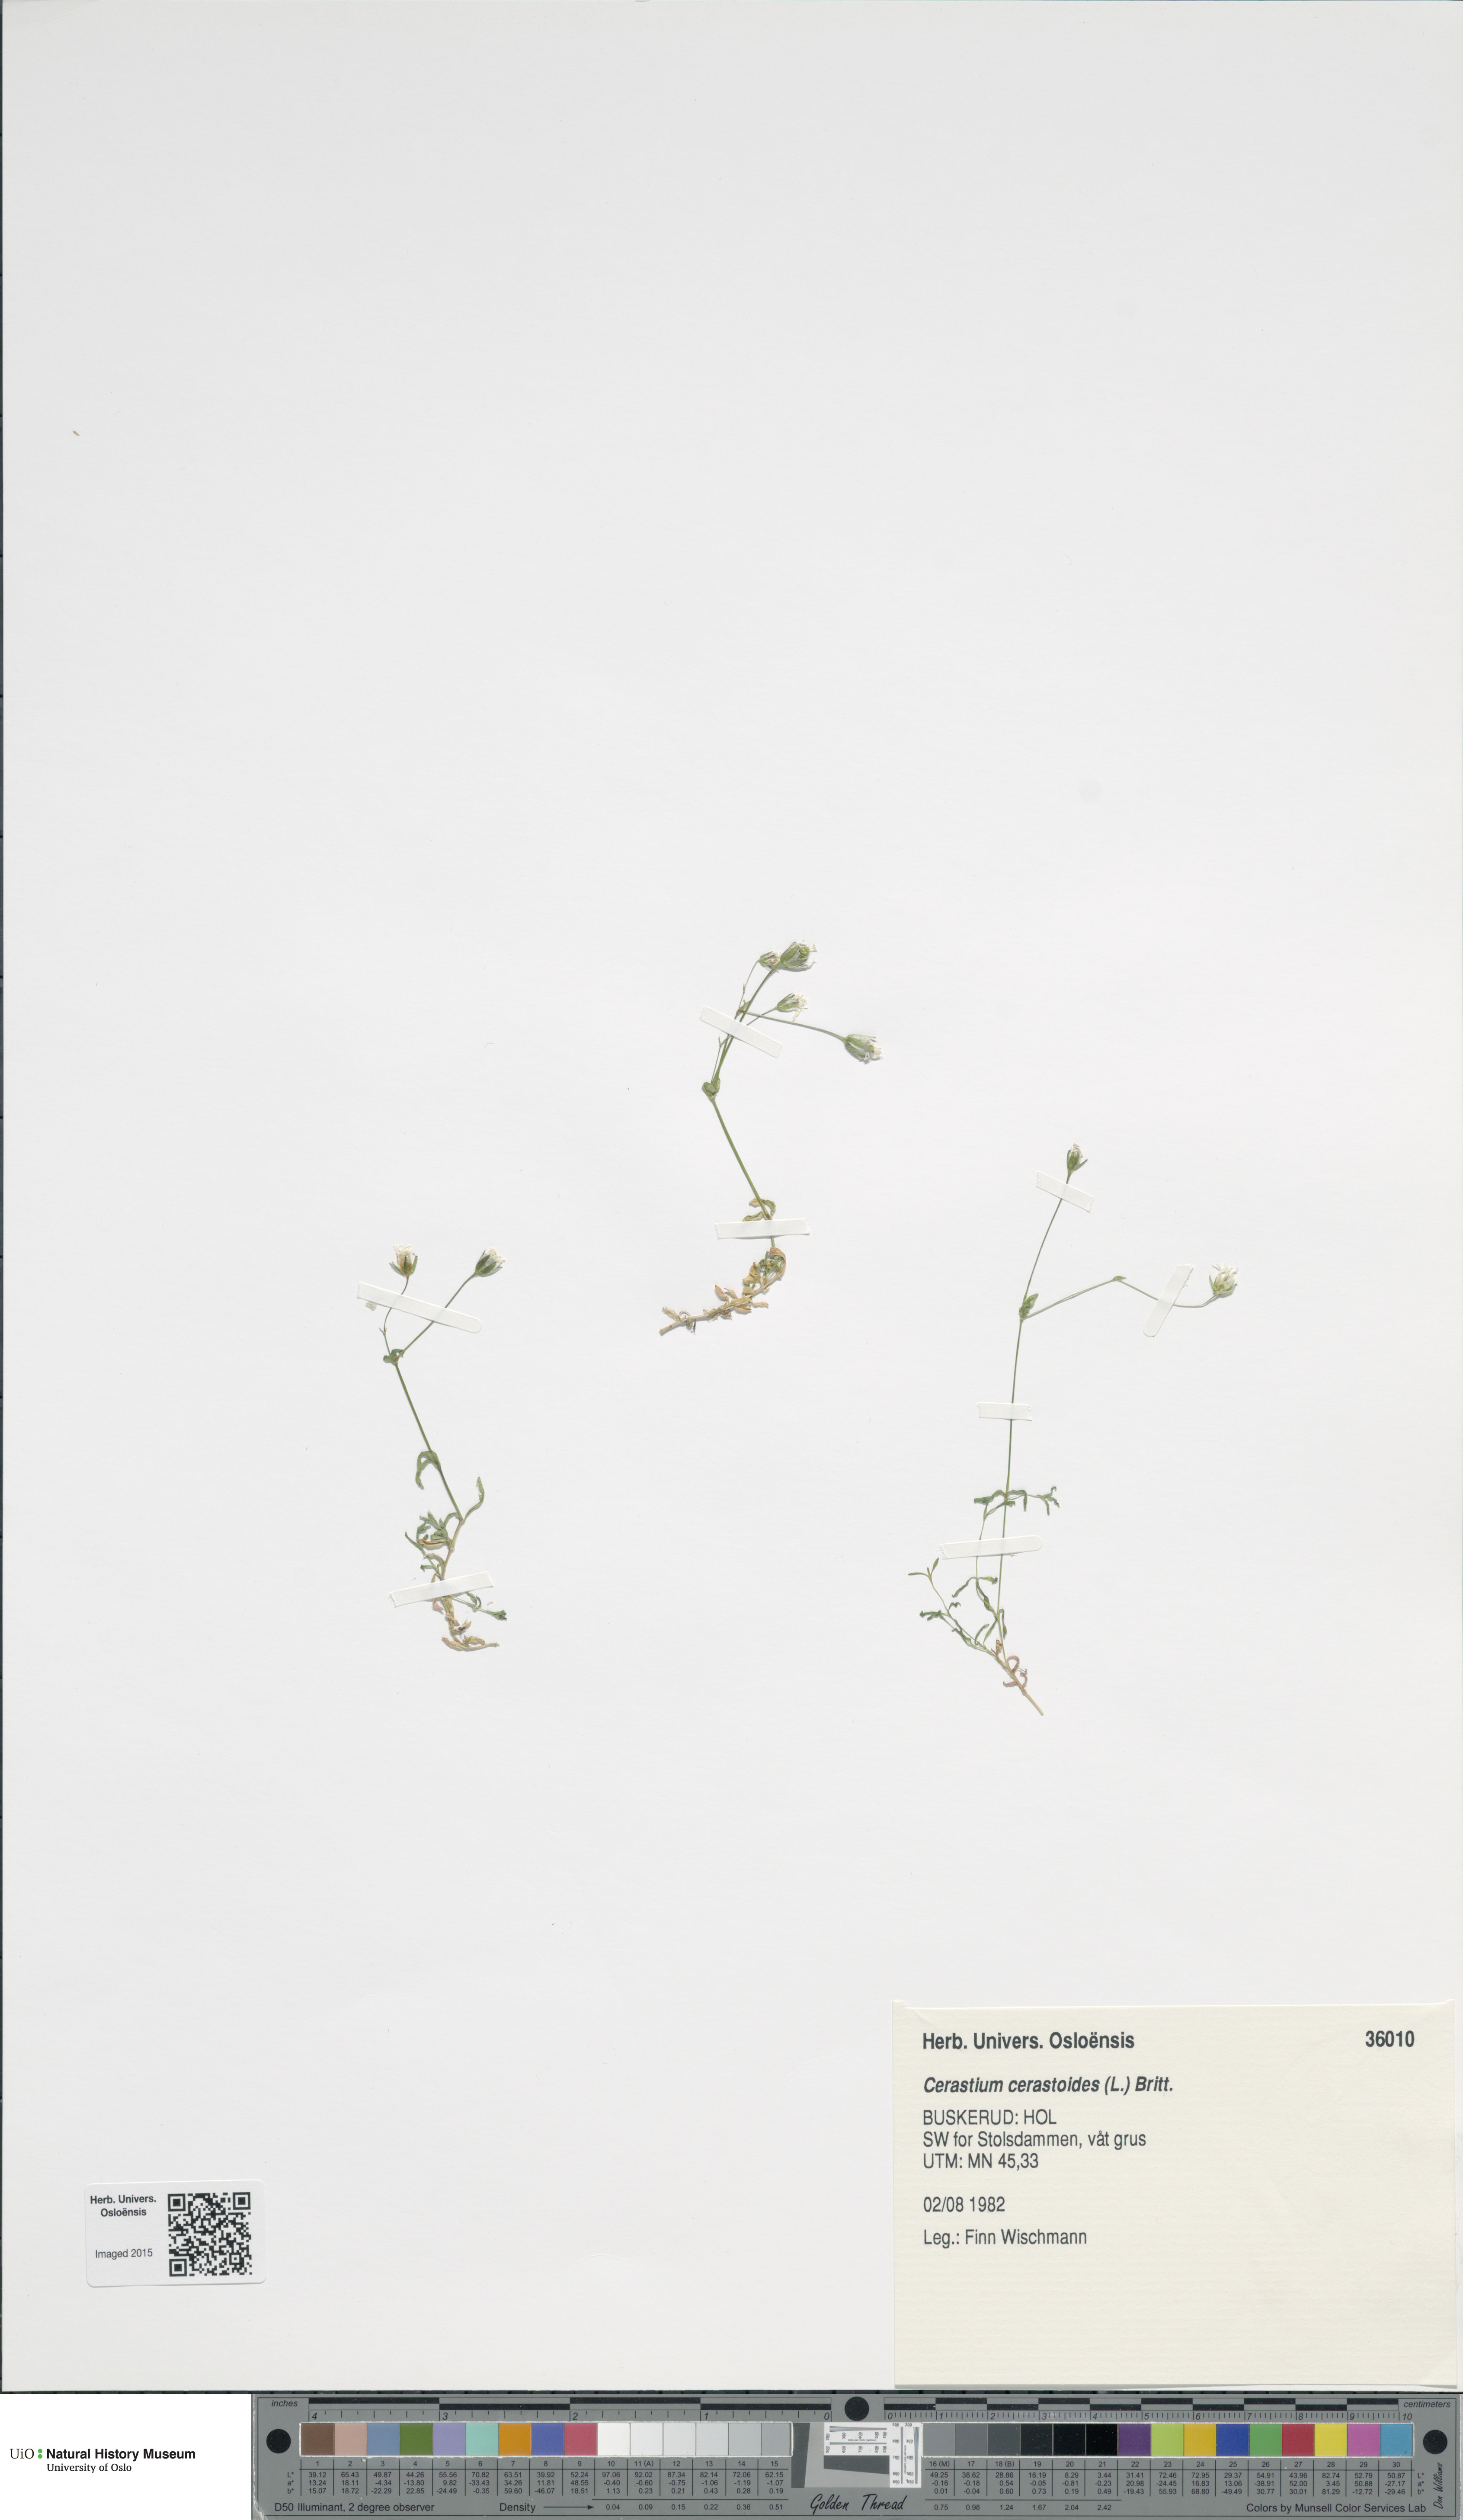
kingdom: Plantae
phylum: Tracheophyta
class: Magnoliopsida
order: Caryophyllales
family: Caryophyllaceae
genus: Dichodon
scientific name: Dichodon cerastoides
